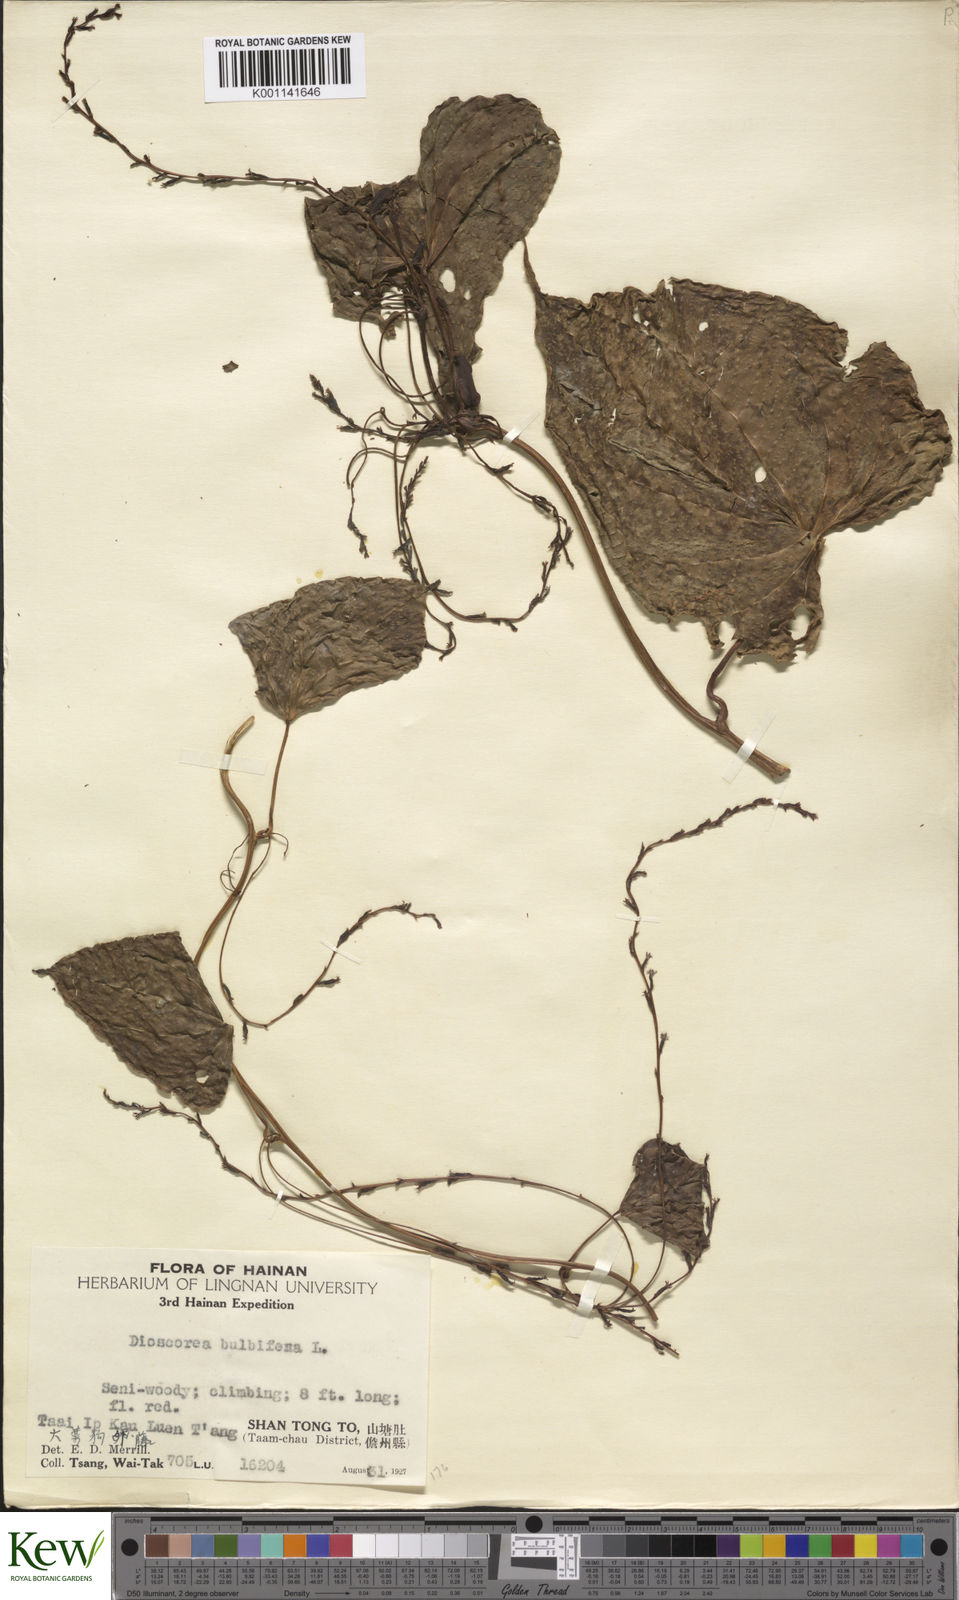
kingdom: Plantae
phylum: Tracheophyta
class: Liliopsida
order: Dioscoreales
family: Dioscoreaceae
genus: Dioscorea
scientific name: Dioscorea bulbifera
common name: Air yam
